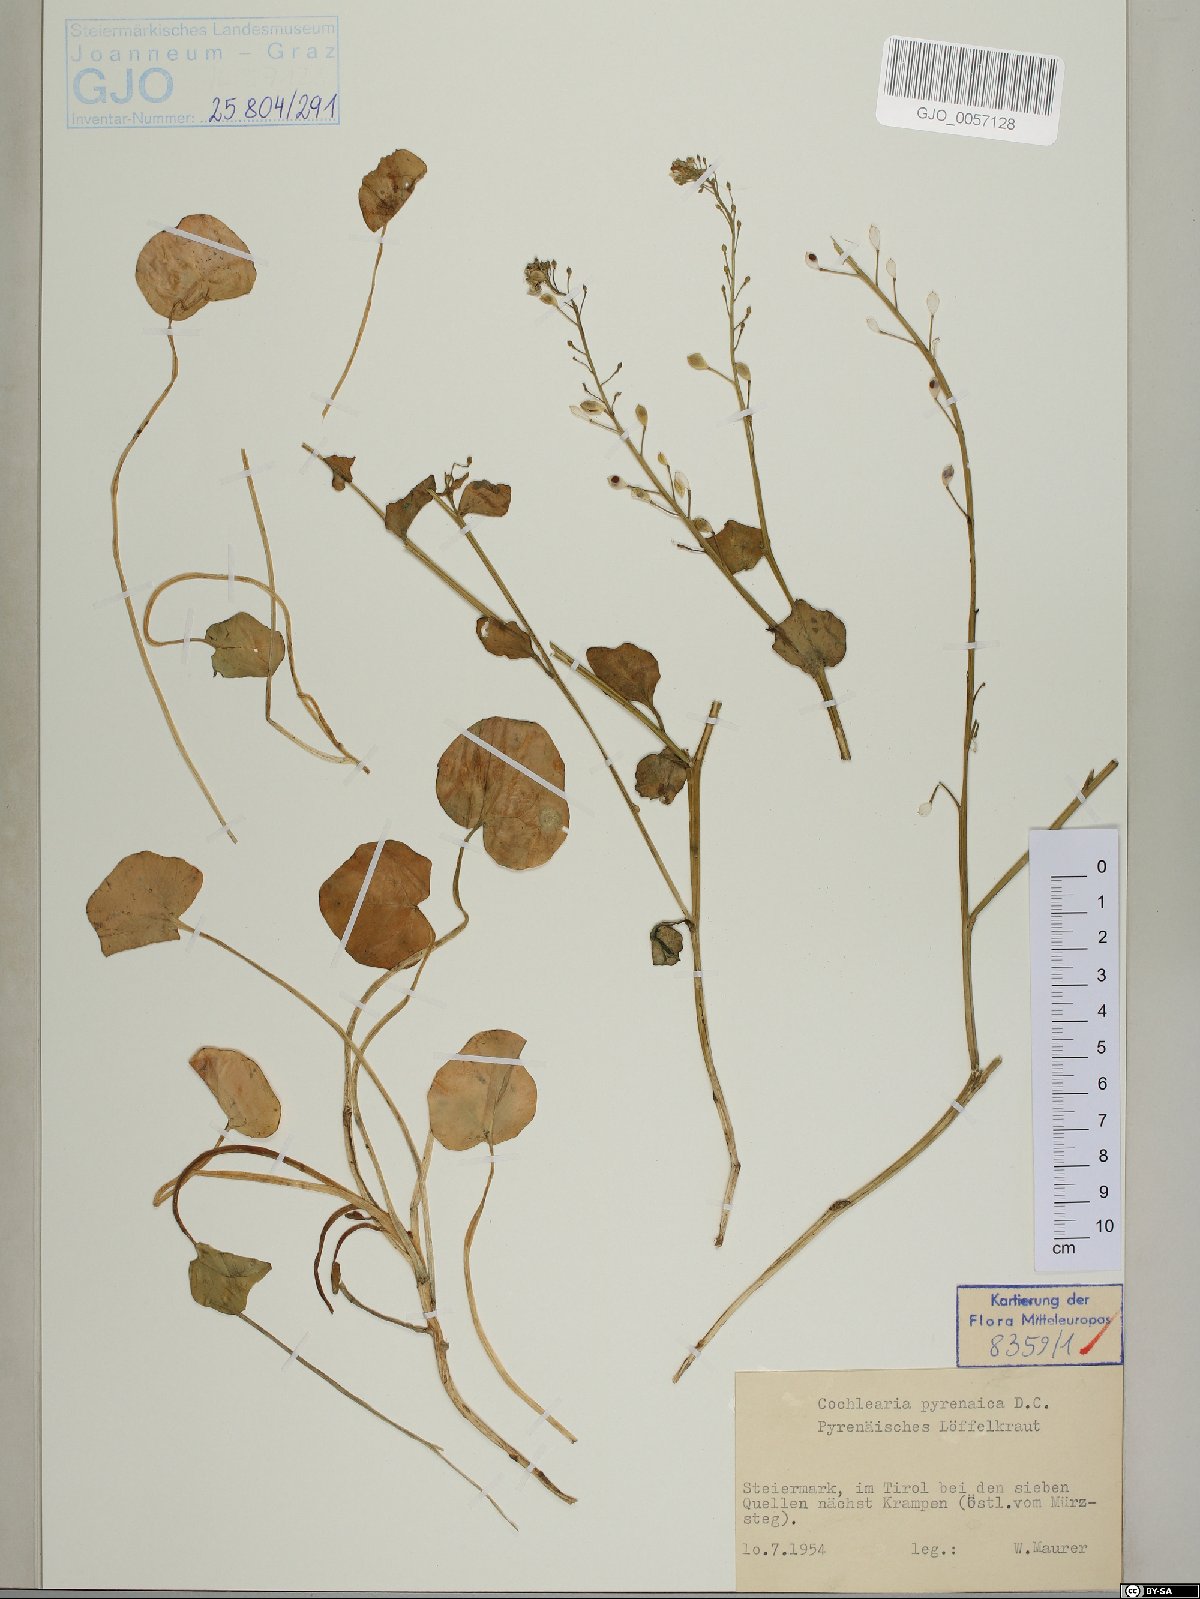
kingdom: Plantae
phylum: Tracheophyta
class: Magnoliopsida
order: Brassicales
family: Brassicaceae
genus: Cochlearia
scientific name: Cochlearia pyrenaica
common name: Upland scurvy-grass
